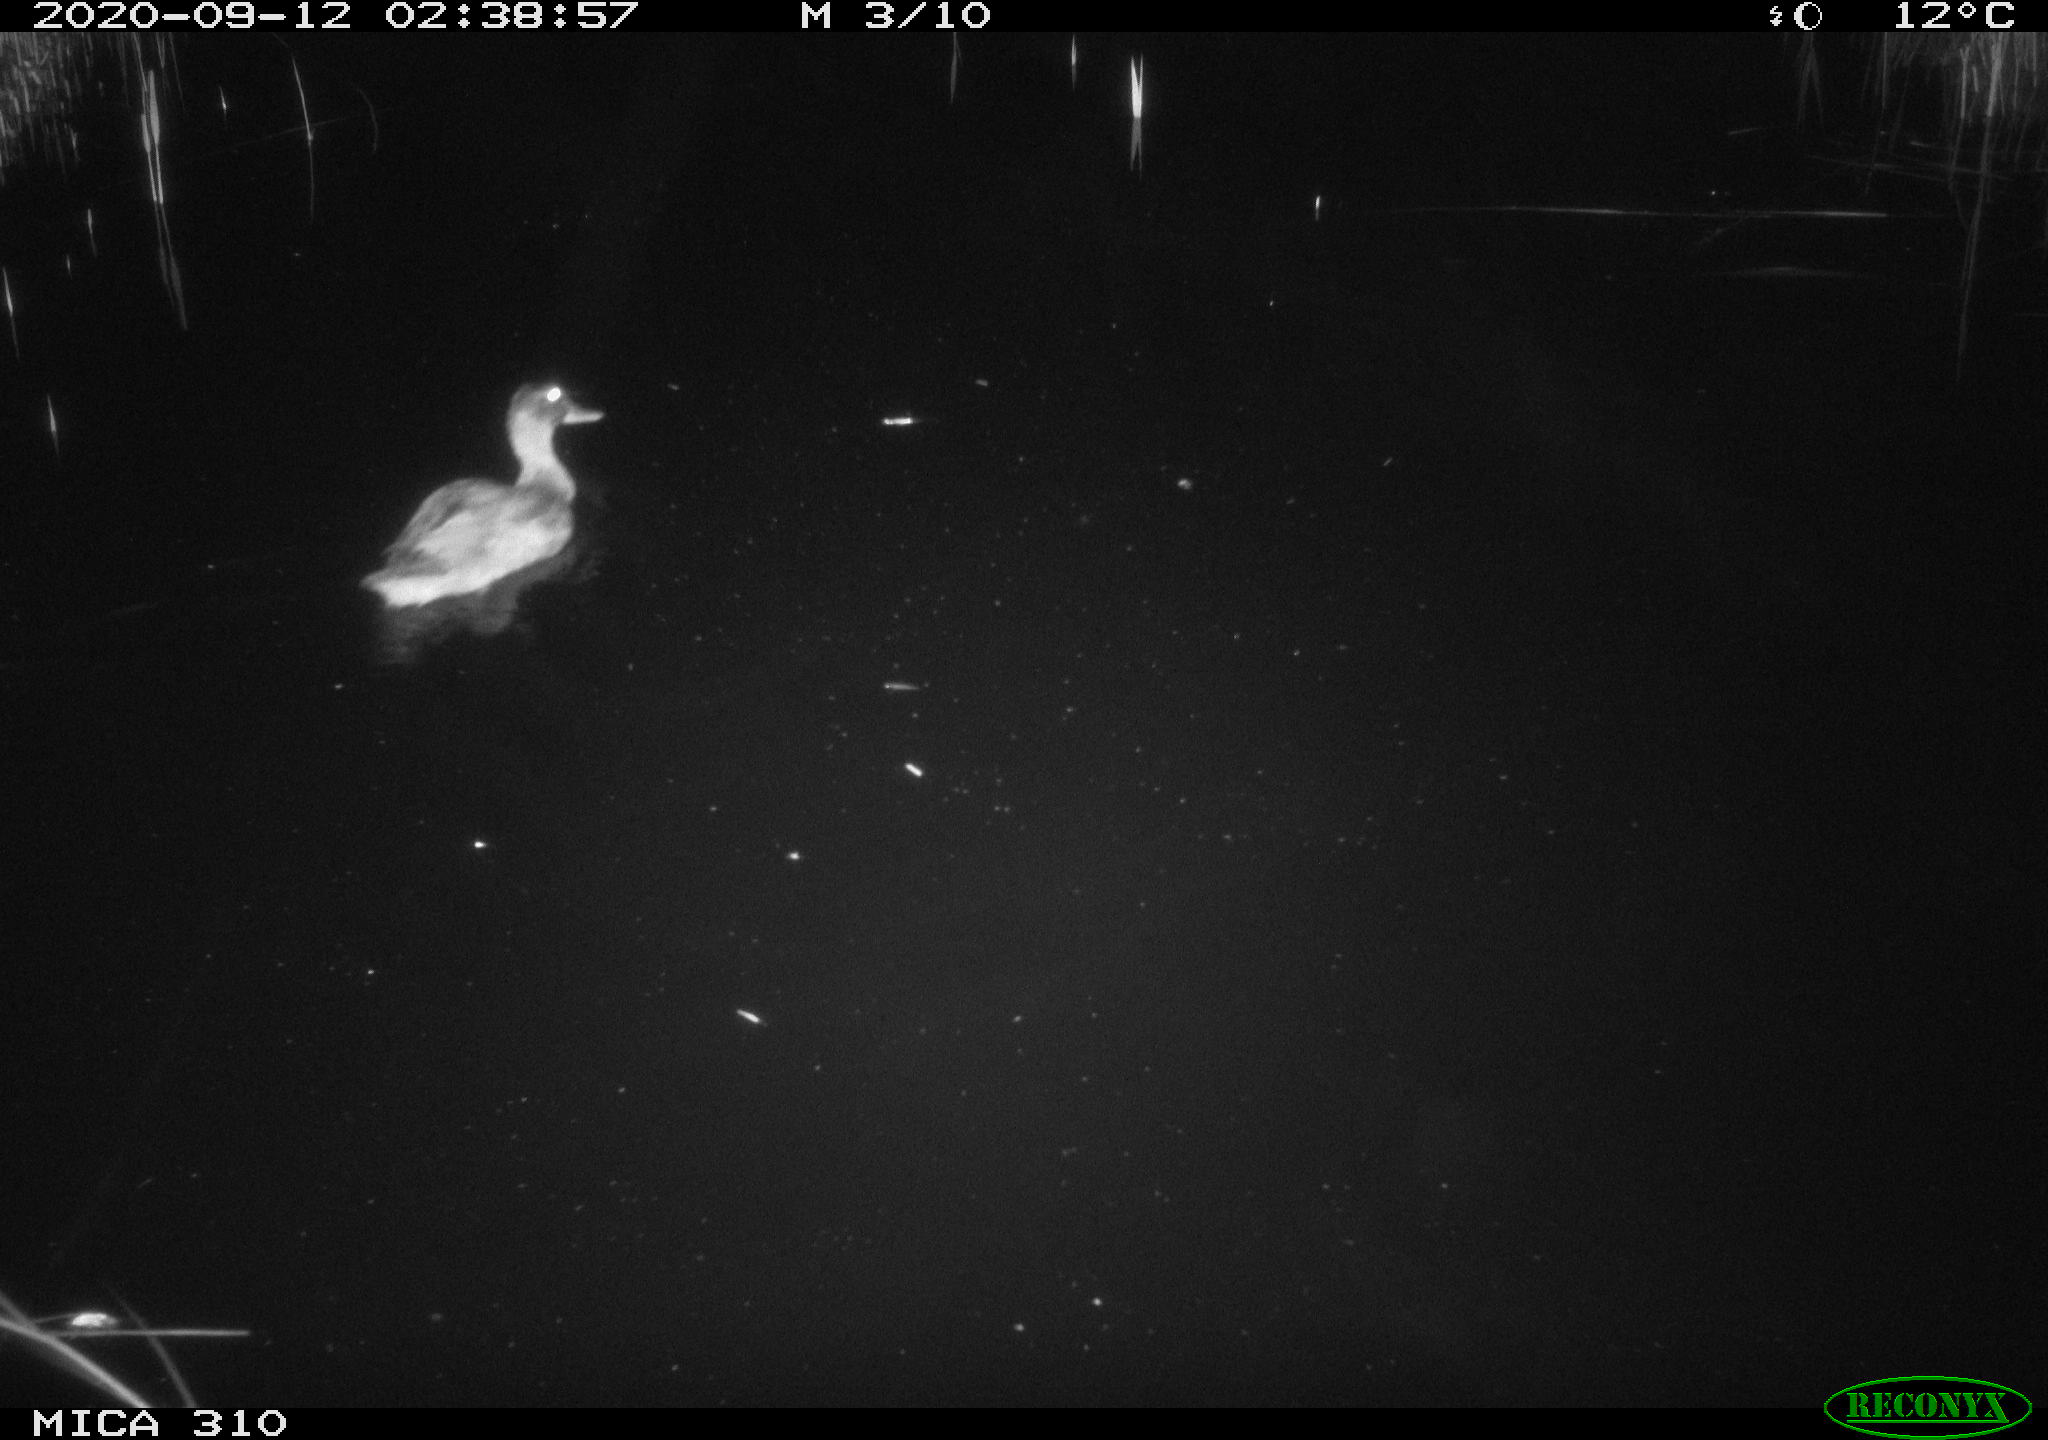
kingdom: Animalia
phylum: Chordata
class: Aves
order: Anseriformes
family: Anatidae
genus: Anas
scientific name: Anas platyrhynchos
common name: Mallard
